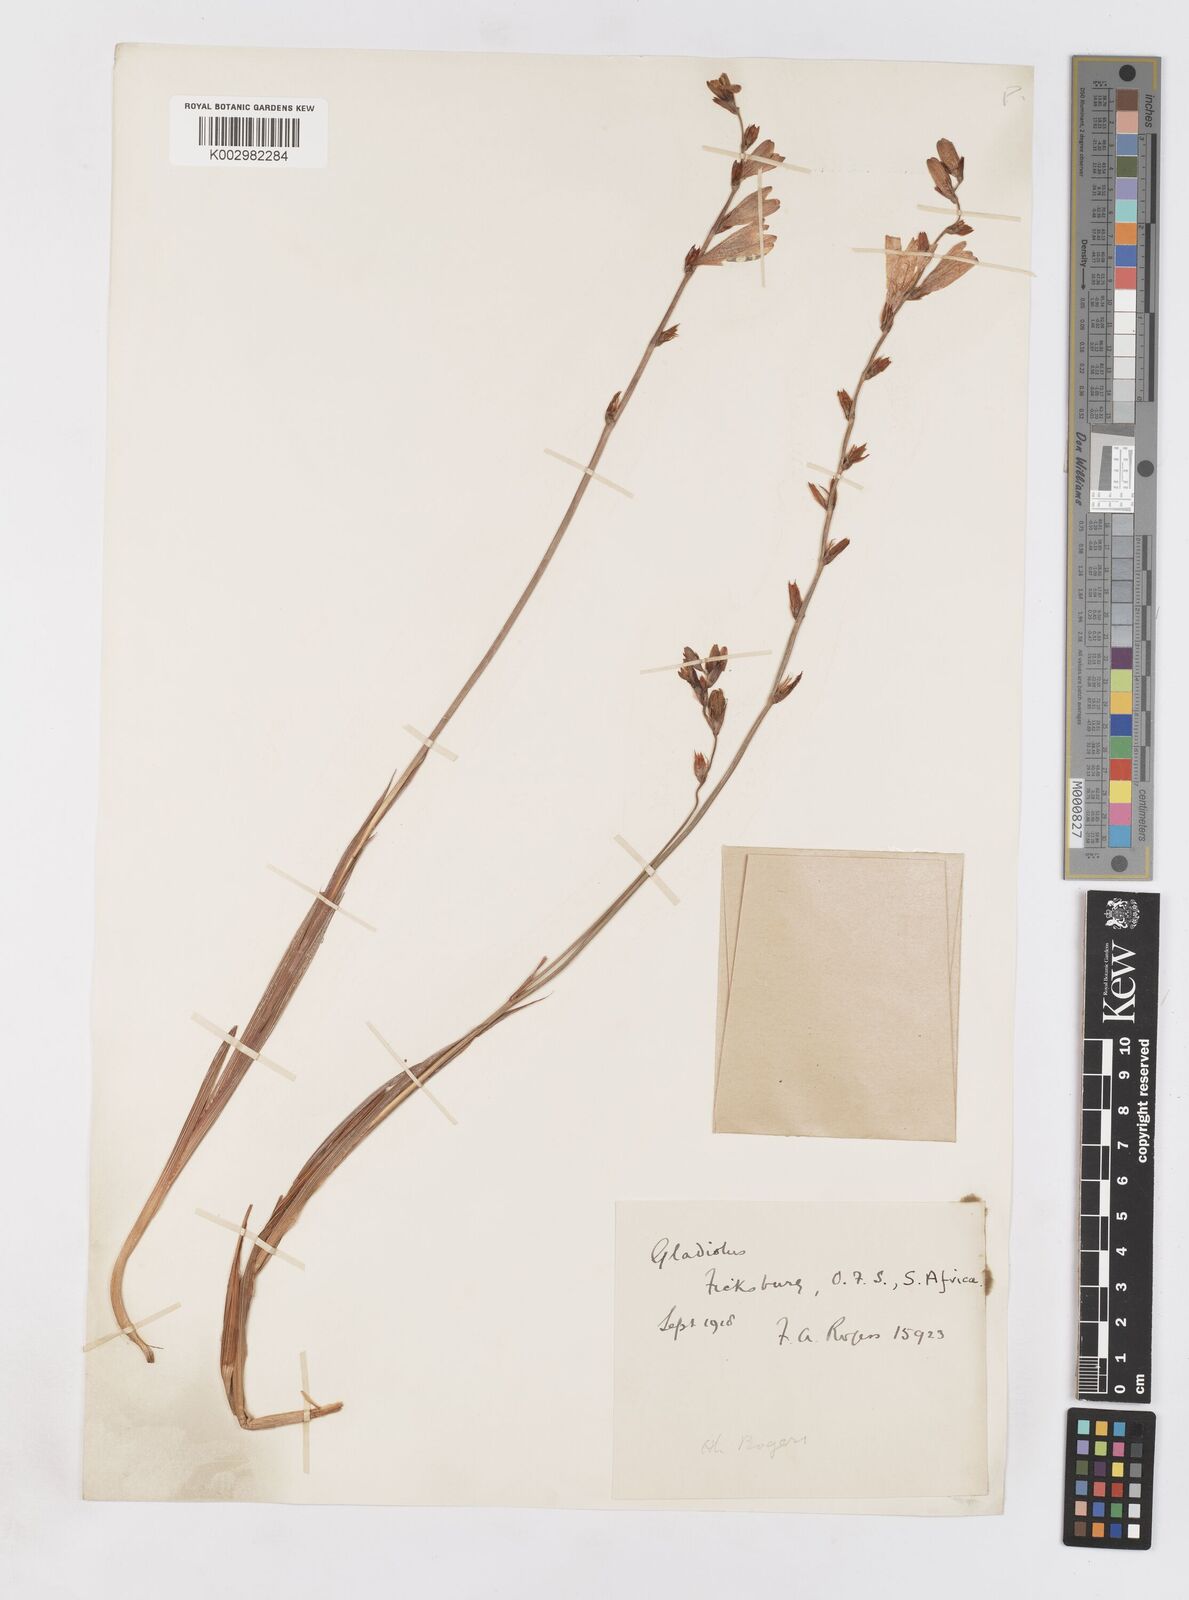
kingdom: Plantae
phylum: Tracheophyta
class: Liliopsida
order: Asparagales
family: Iridaceae
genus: Tritonia
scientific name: Tritonia disticha
